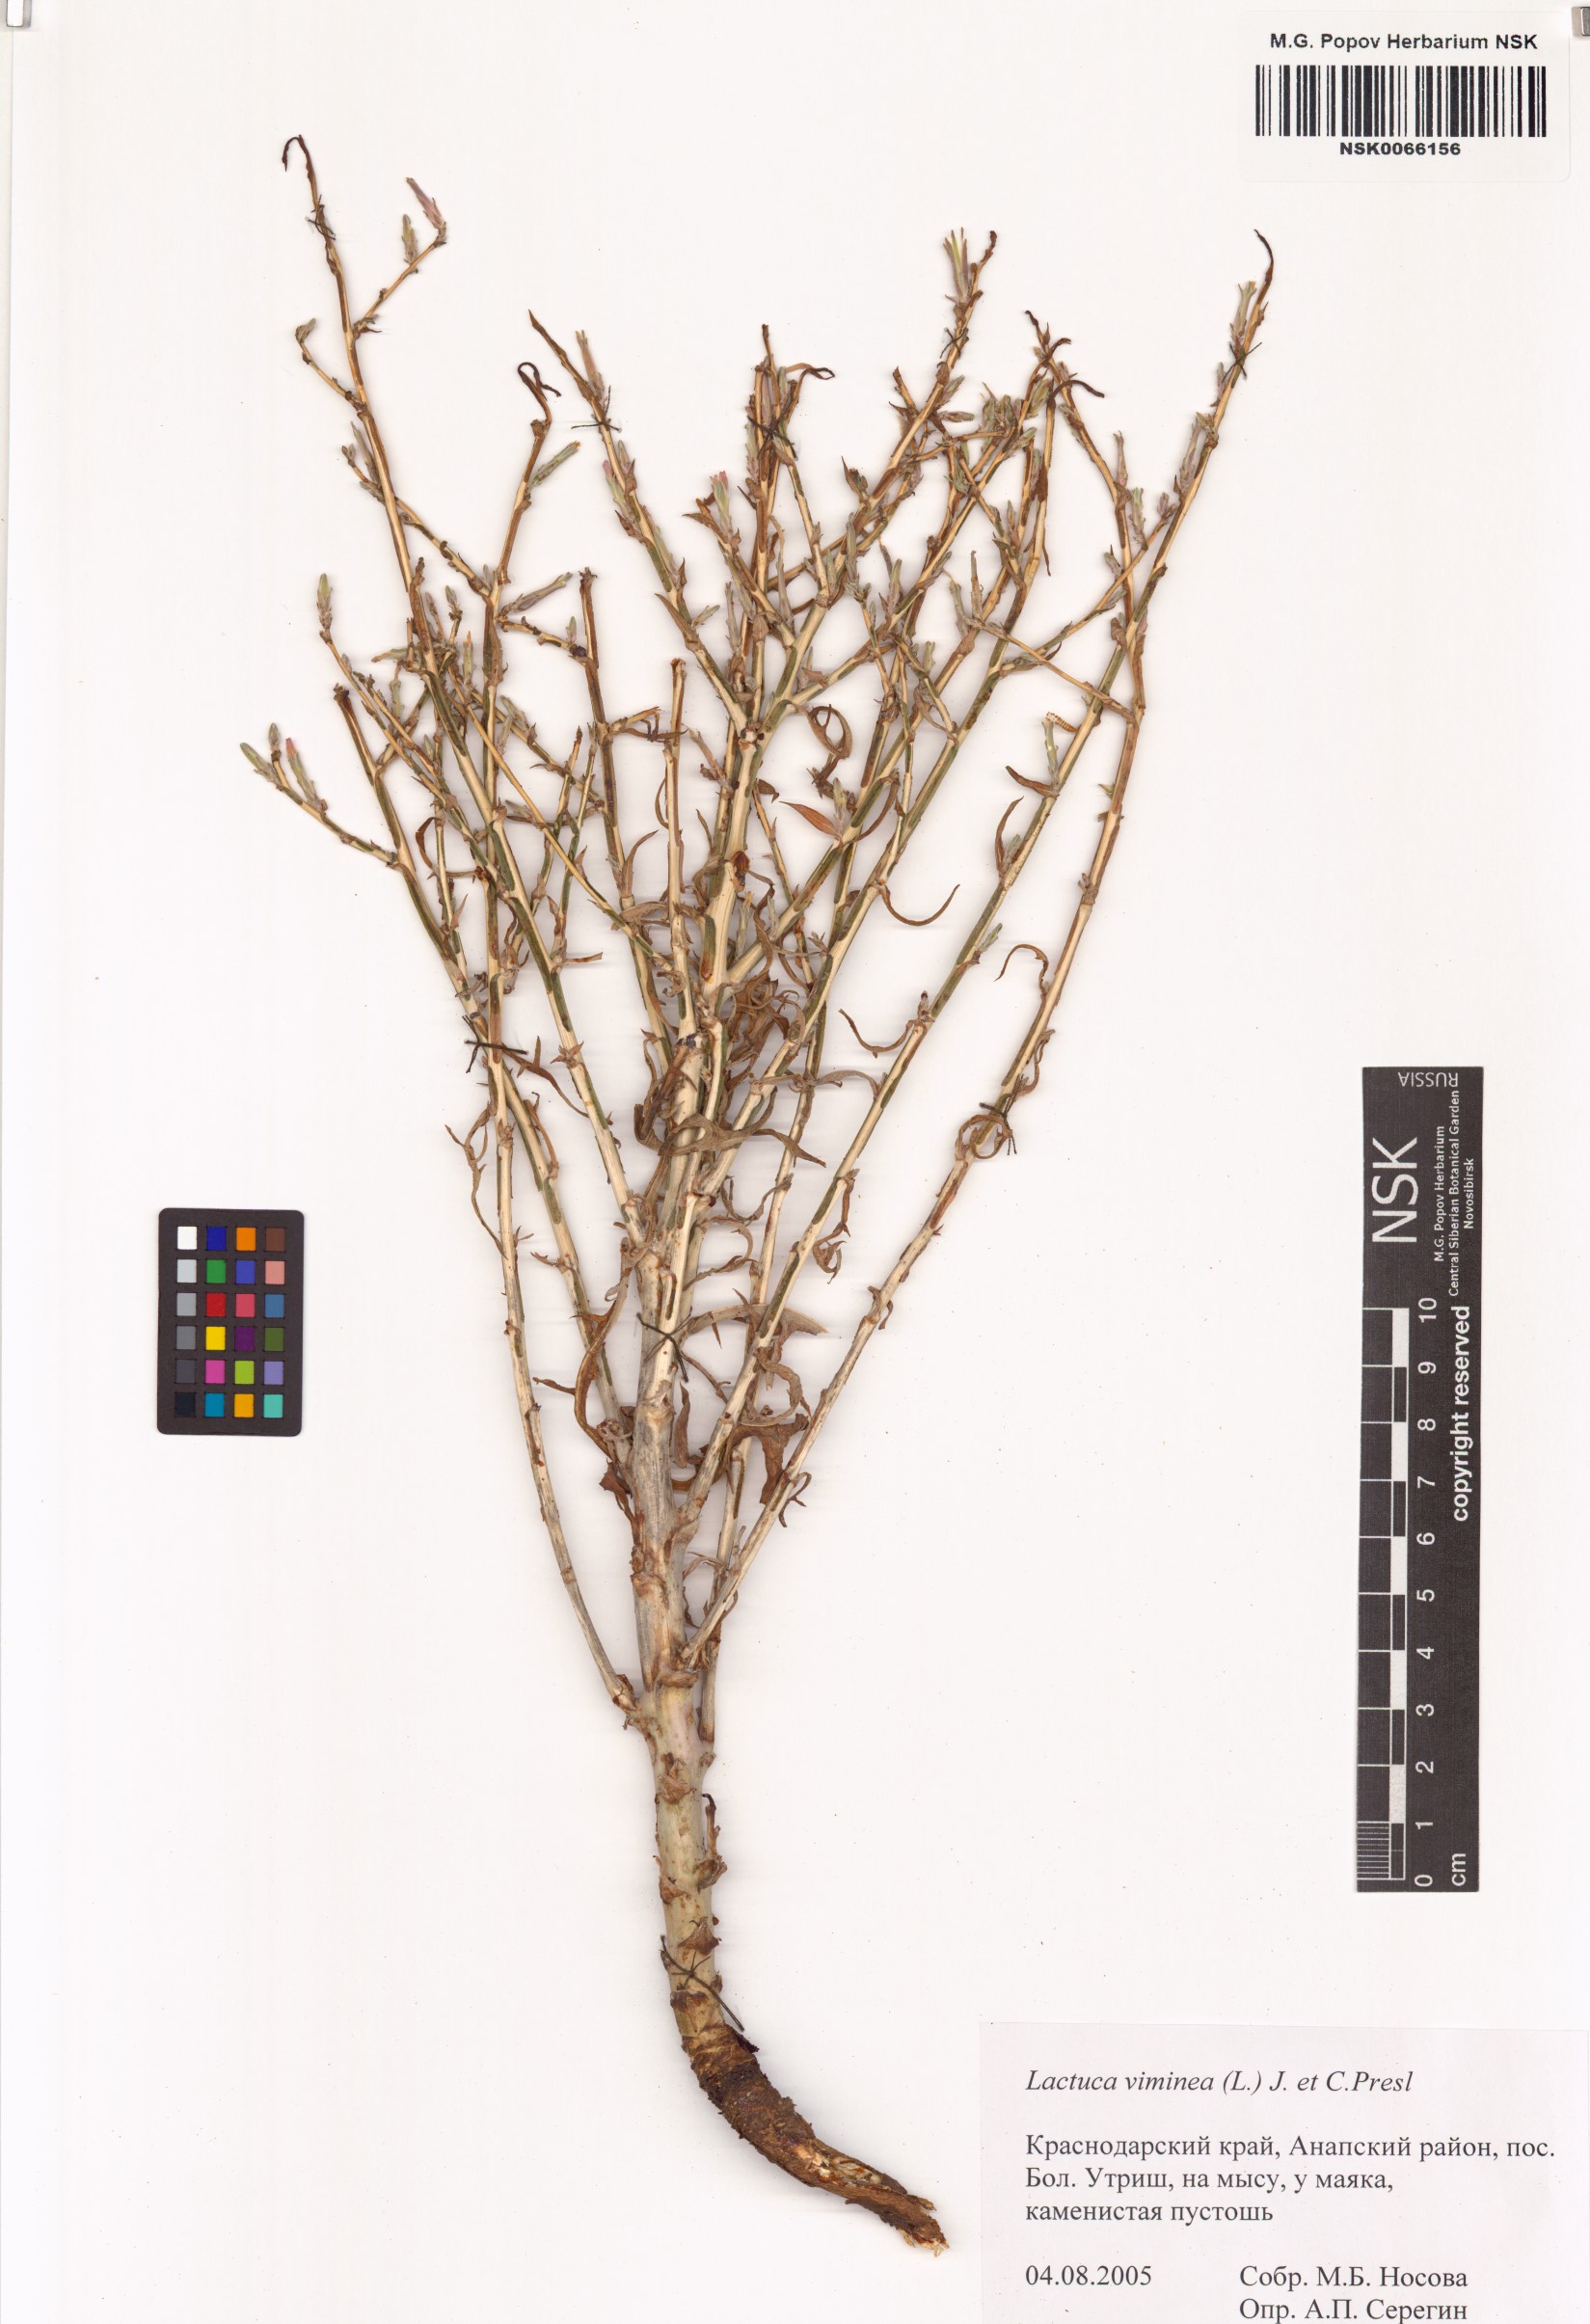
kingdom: Plantae
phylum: Tracheophyta
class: Magnoliopsida
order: Asterales
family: Asteraceae
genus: Lactuca
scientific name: Lactuca viminea
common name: Pliant lettuce
